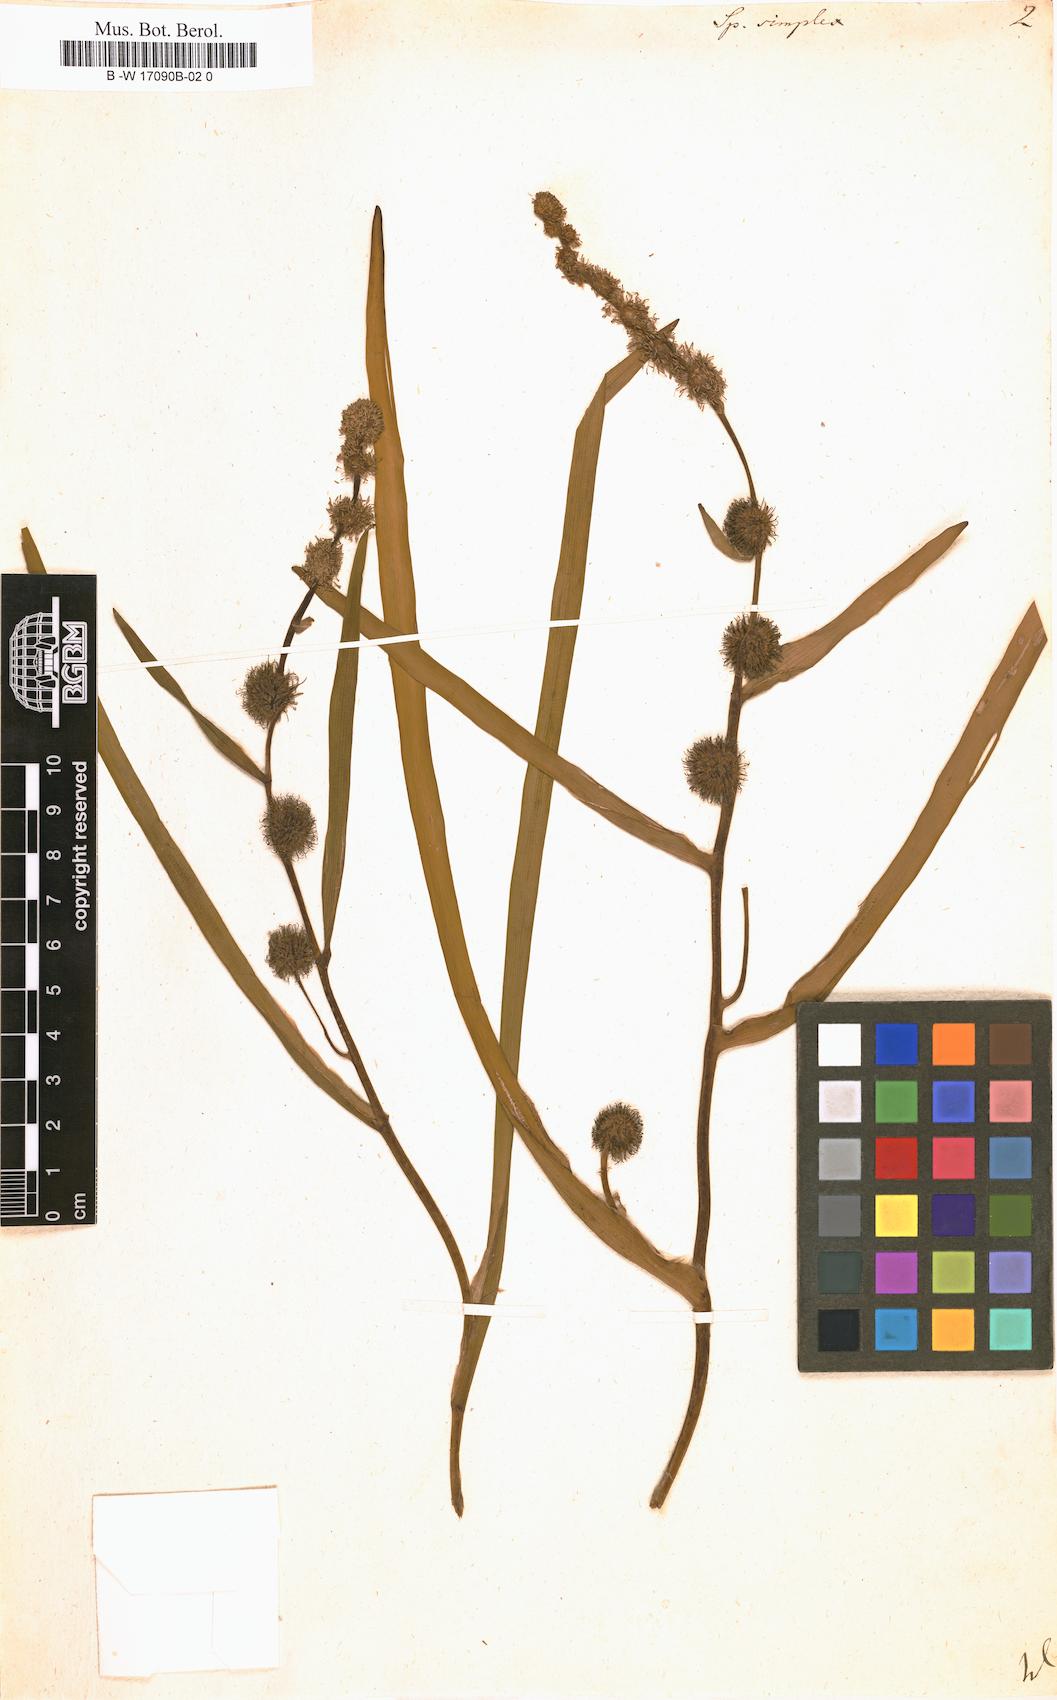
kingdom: Plantae
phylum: Tracheophyta
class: Liliopsida
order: Poales
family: Typhaceae
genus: Sparganium
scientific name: Sparganium
